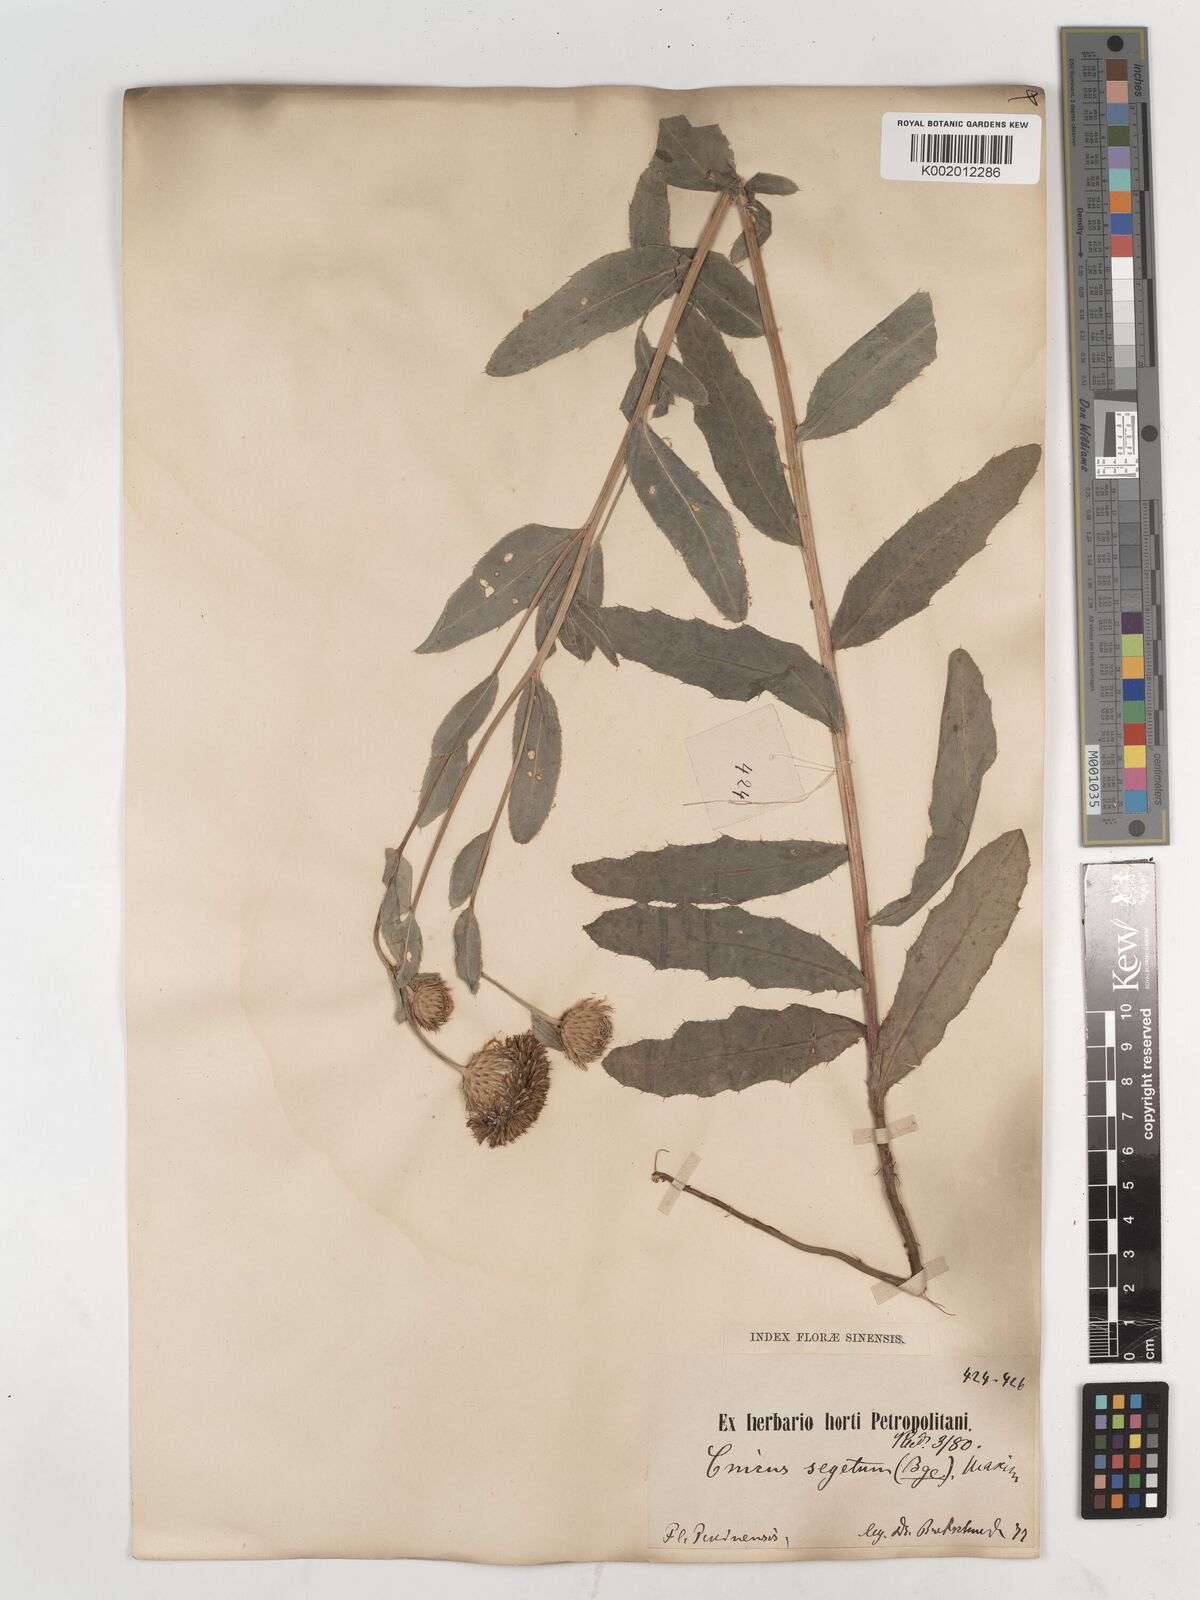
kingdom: Plantae
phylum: Tracheophyta
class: Magnoliopsida
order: Asterales
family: Asteraceae
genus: Cirsium
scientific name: Cirsium arvense
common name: Creeping thistle
